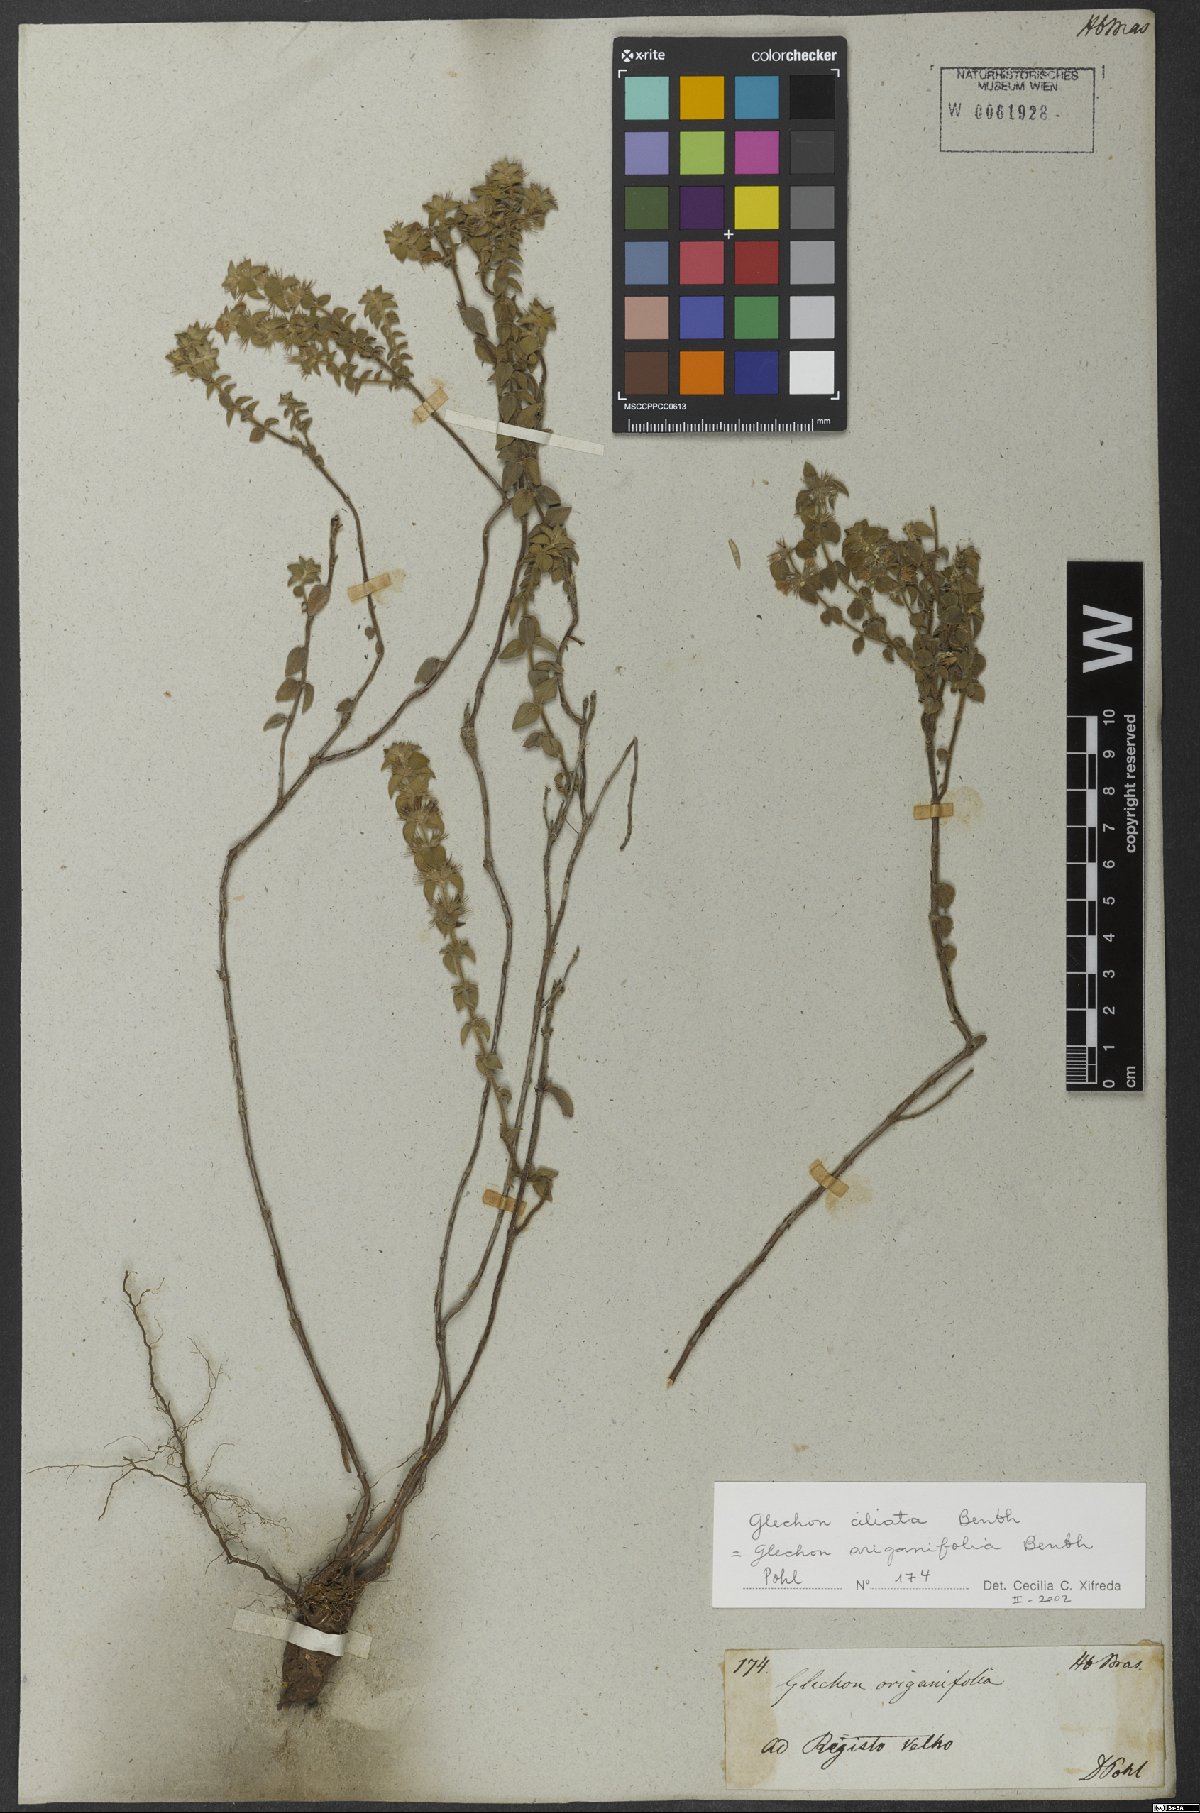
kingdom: Plantae
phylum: Tracheophyta
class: Magnoliopsida
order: Lamiales
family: Lamiaceae
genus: Glechon
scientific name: Glechon ciliata
